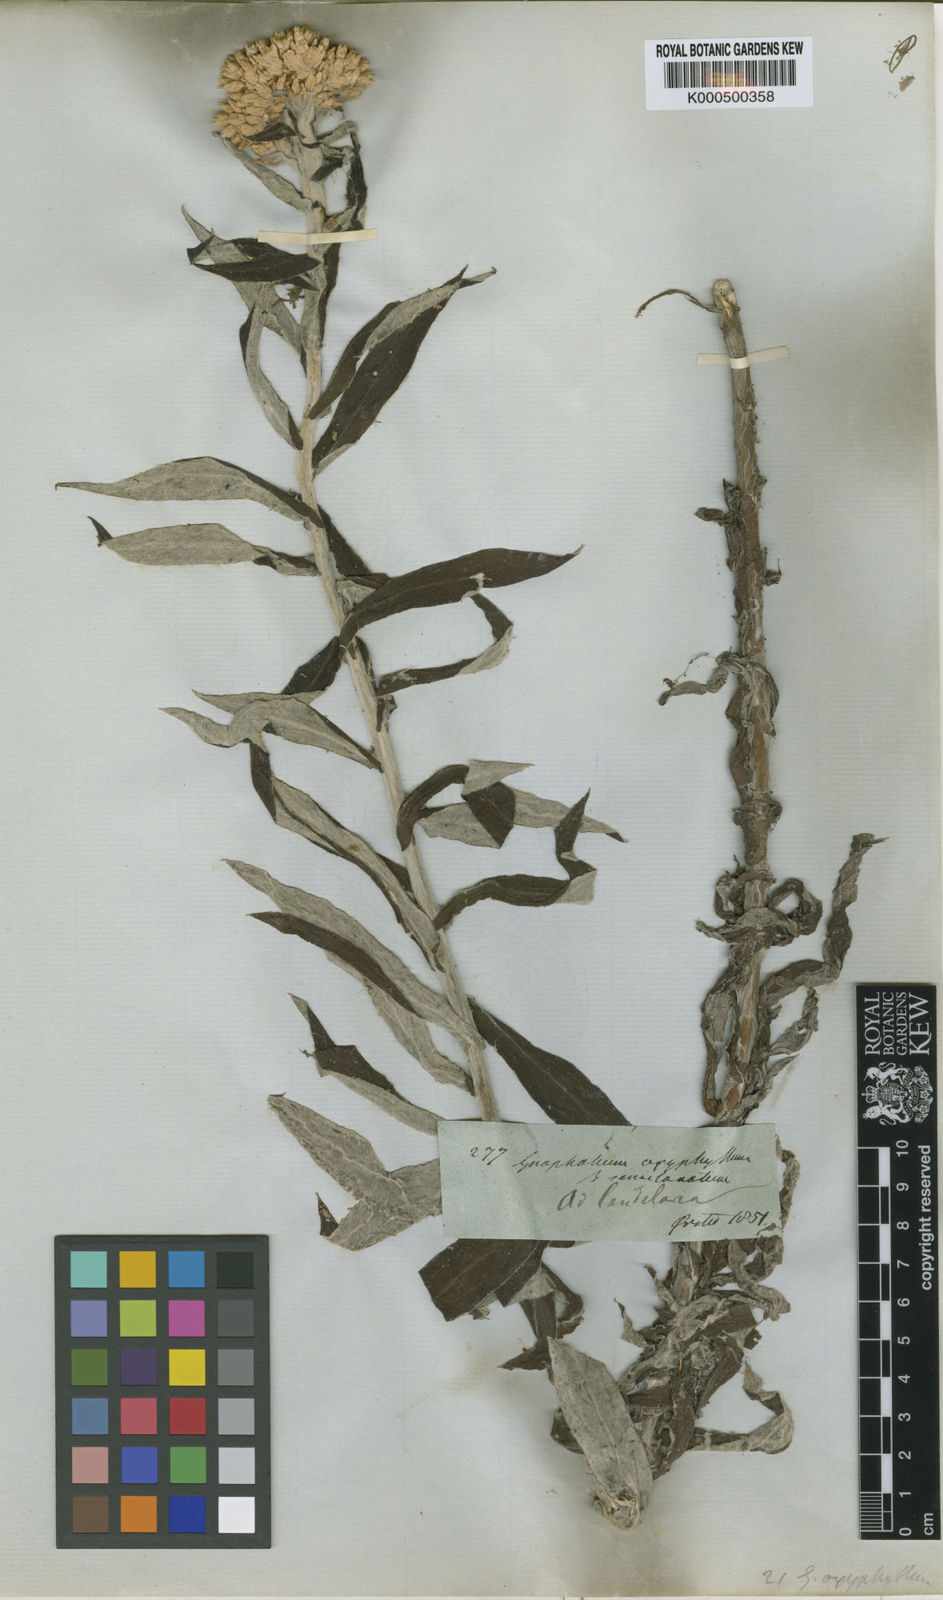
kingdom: Plantae
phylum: Tracheophyta
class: Magnoliopsida
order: Asterales
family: Asteraceae
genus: Pseudognaphalium
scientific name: Pseudognaphalium semiamplexicaule
